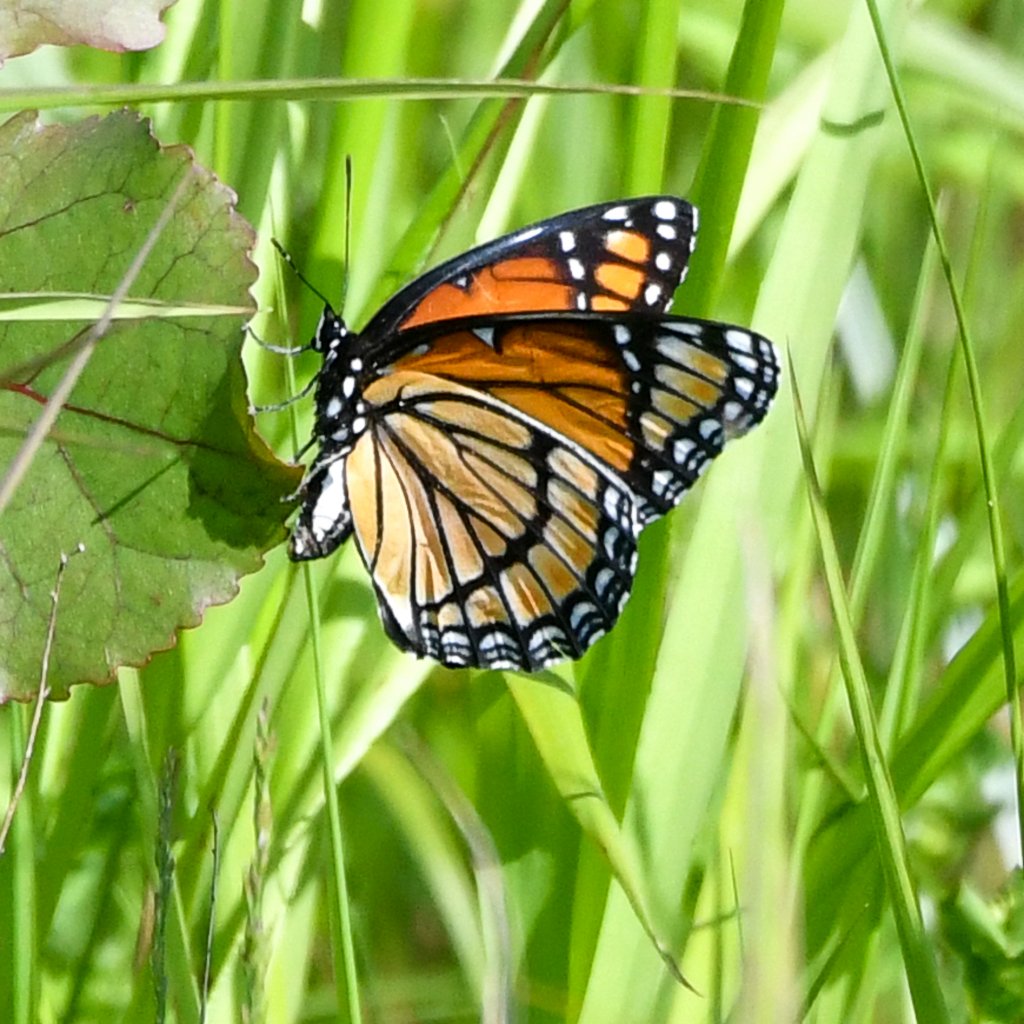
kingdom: Animalia
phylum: Arthropoda
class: Insecta
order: Lepidoptera
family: Nymphalidae
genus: Limenitis
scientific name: Limenitis archippus
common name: Viceroy
